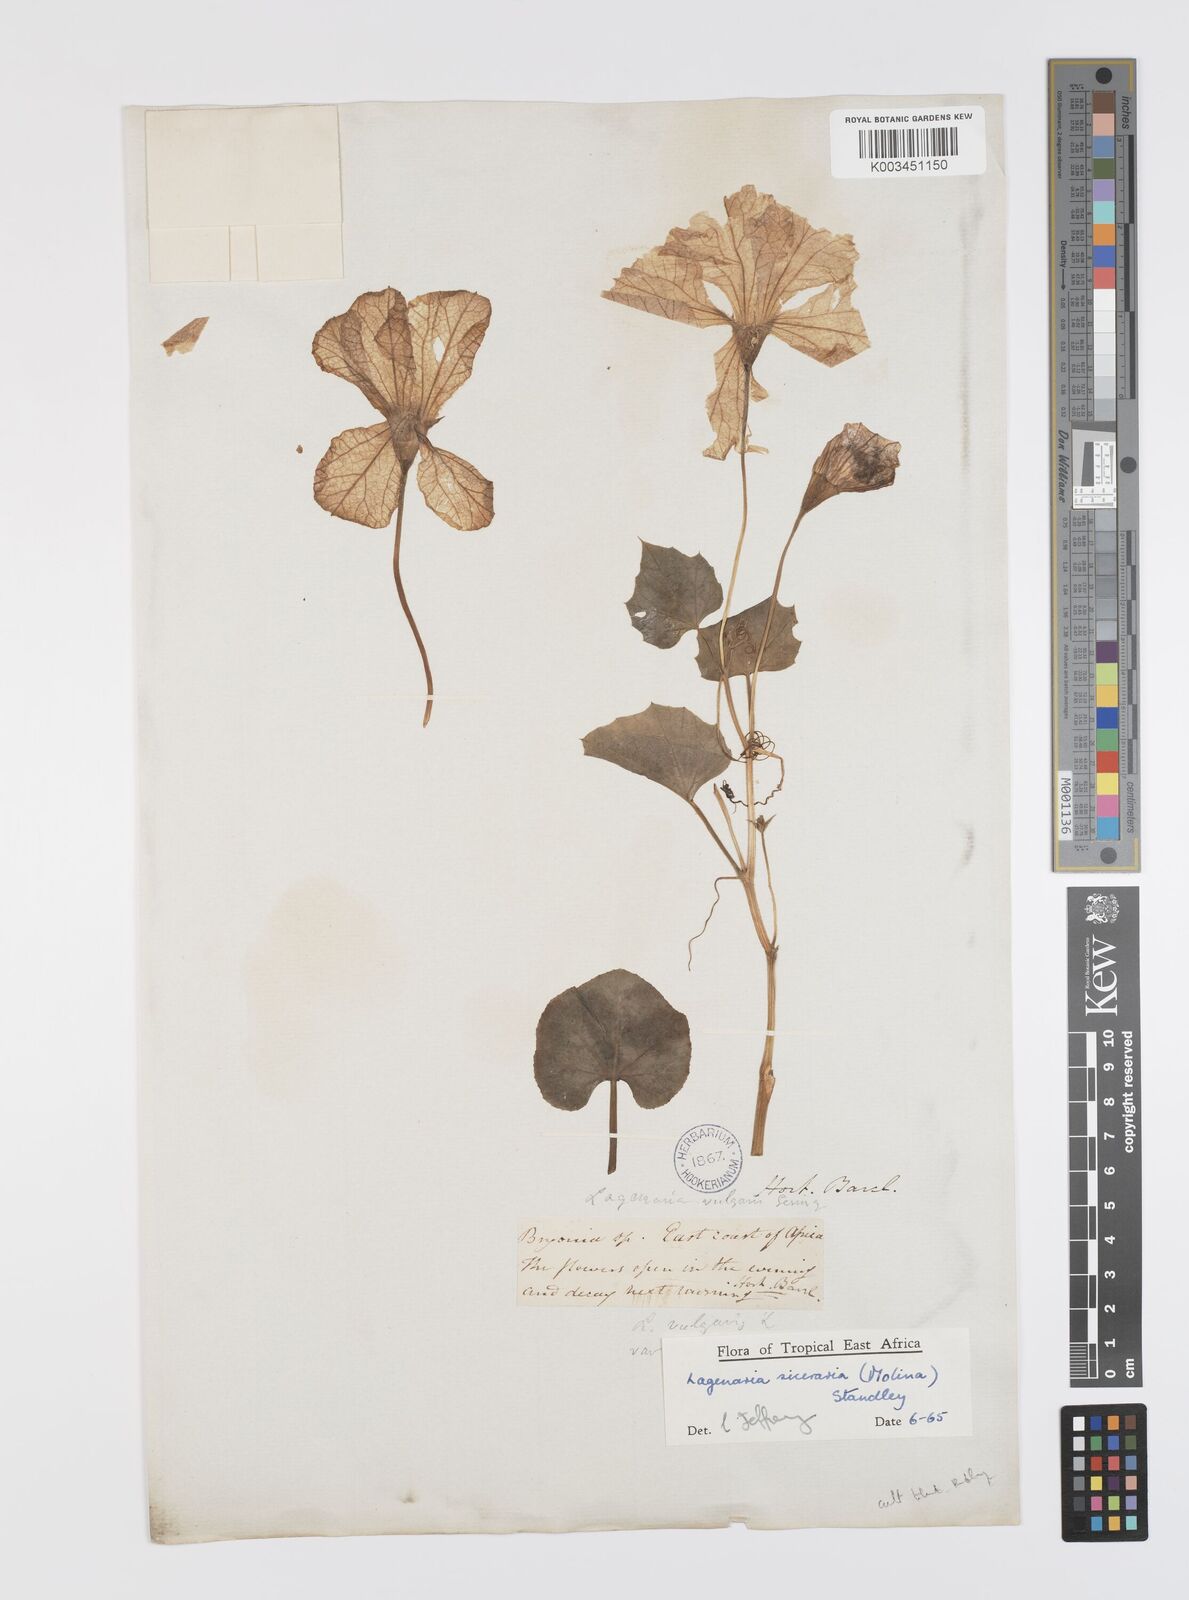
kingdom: Plantae
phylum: Tracheophyta
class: Magnoliopsida
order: Cucurbitales
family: Cucurbitaceae
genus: Lagenaria
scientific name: Lagenaria siceraria
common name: Bottle gourd
